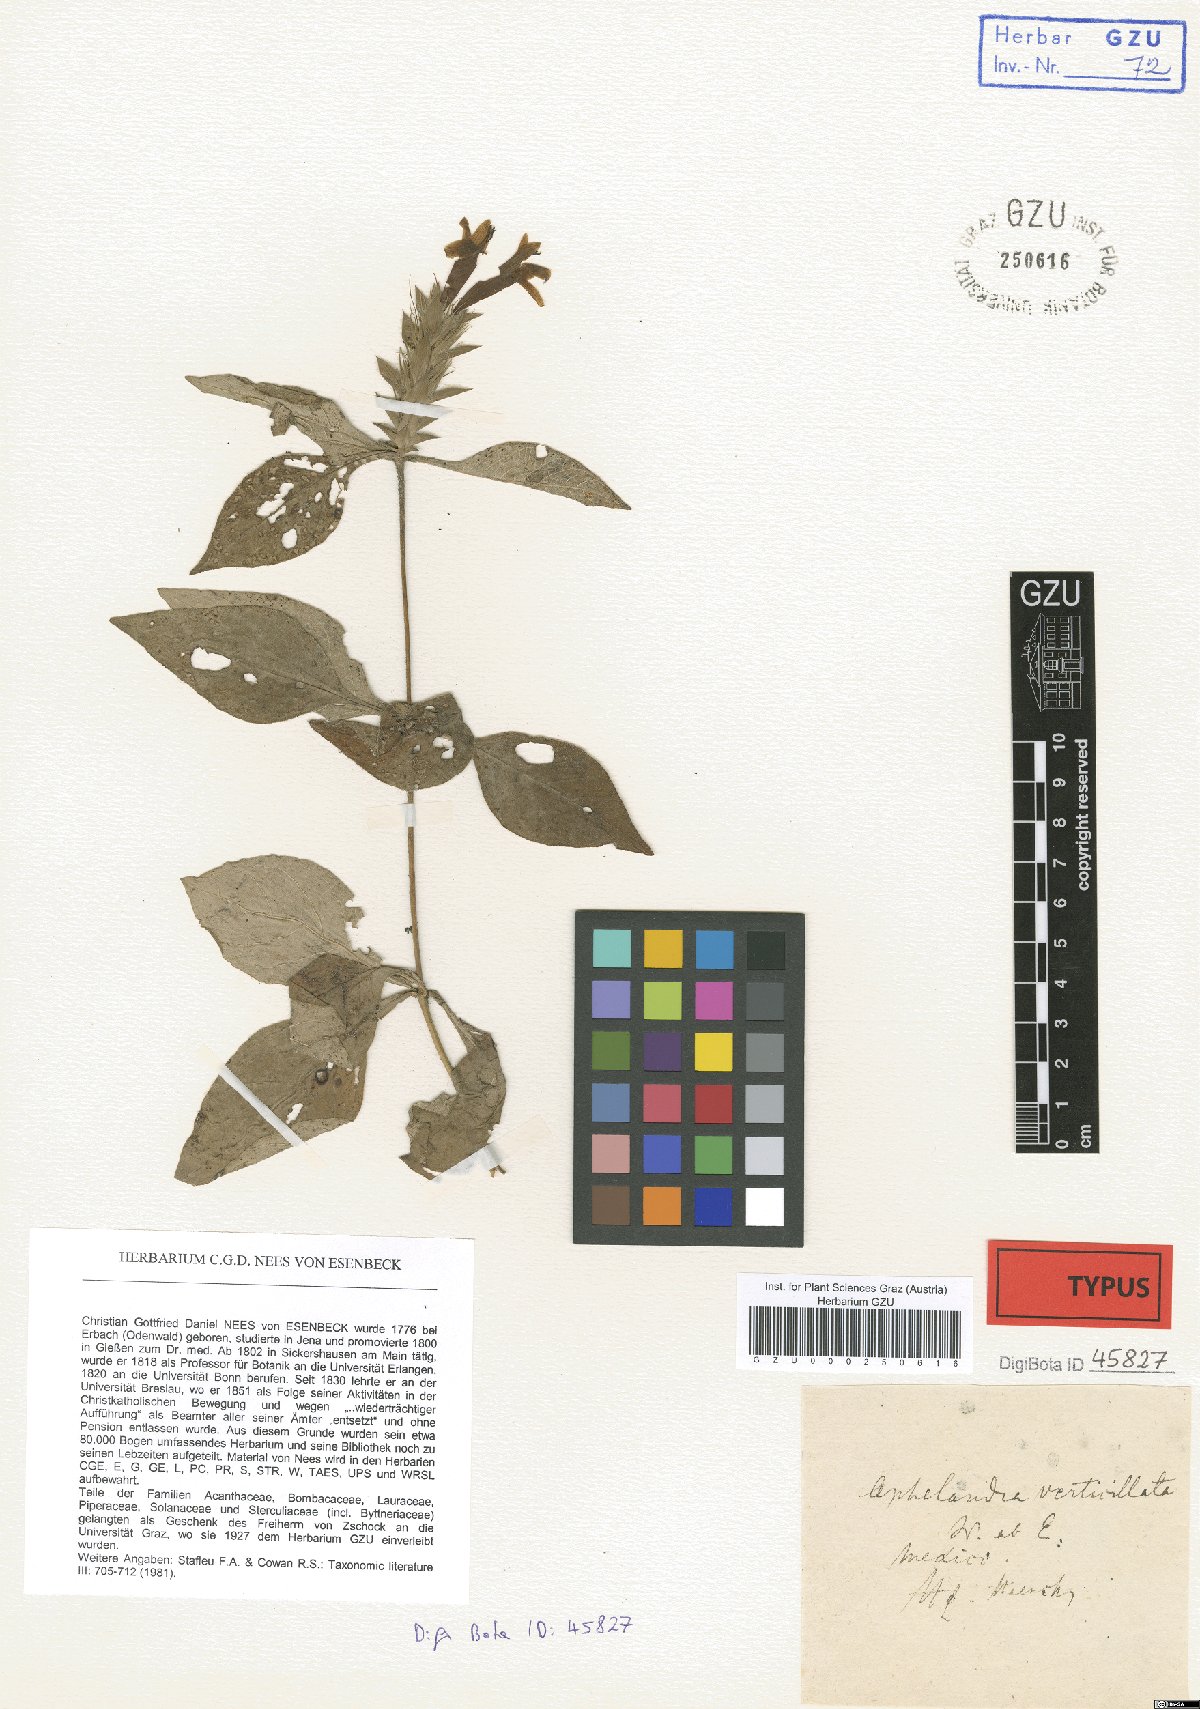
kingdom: Plantae
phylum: Tracheophyta
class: Magnoliopsida
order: Lamiales
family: Acanthaceae
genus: Holographis
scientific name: Holographis haenkeana
